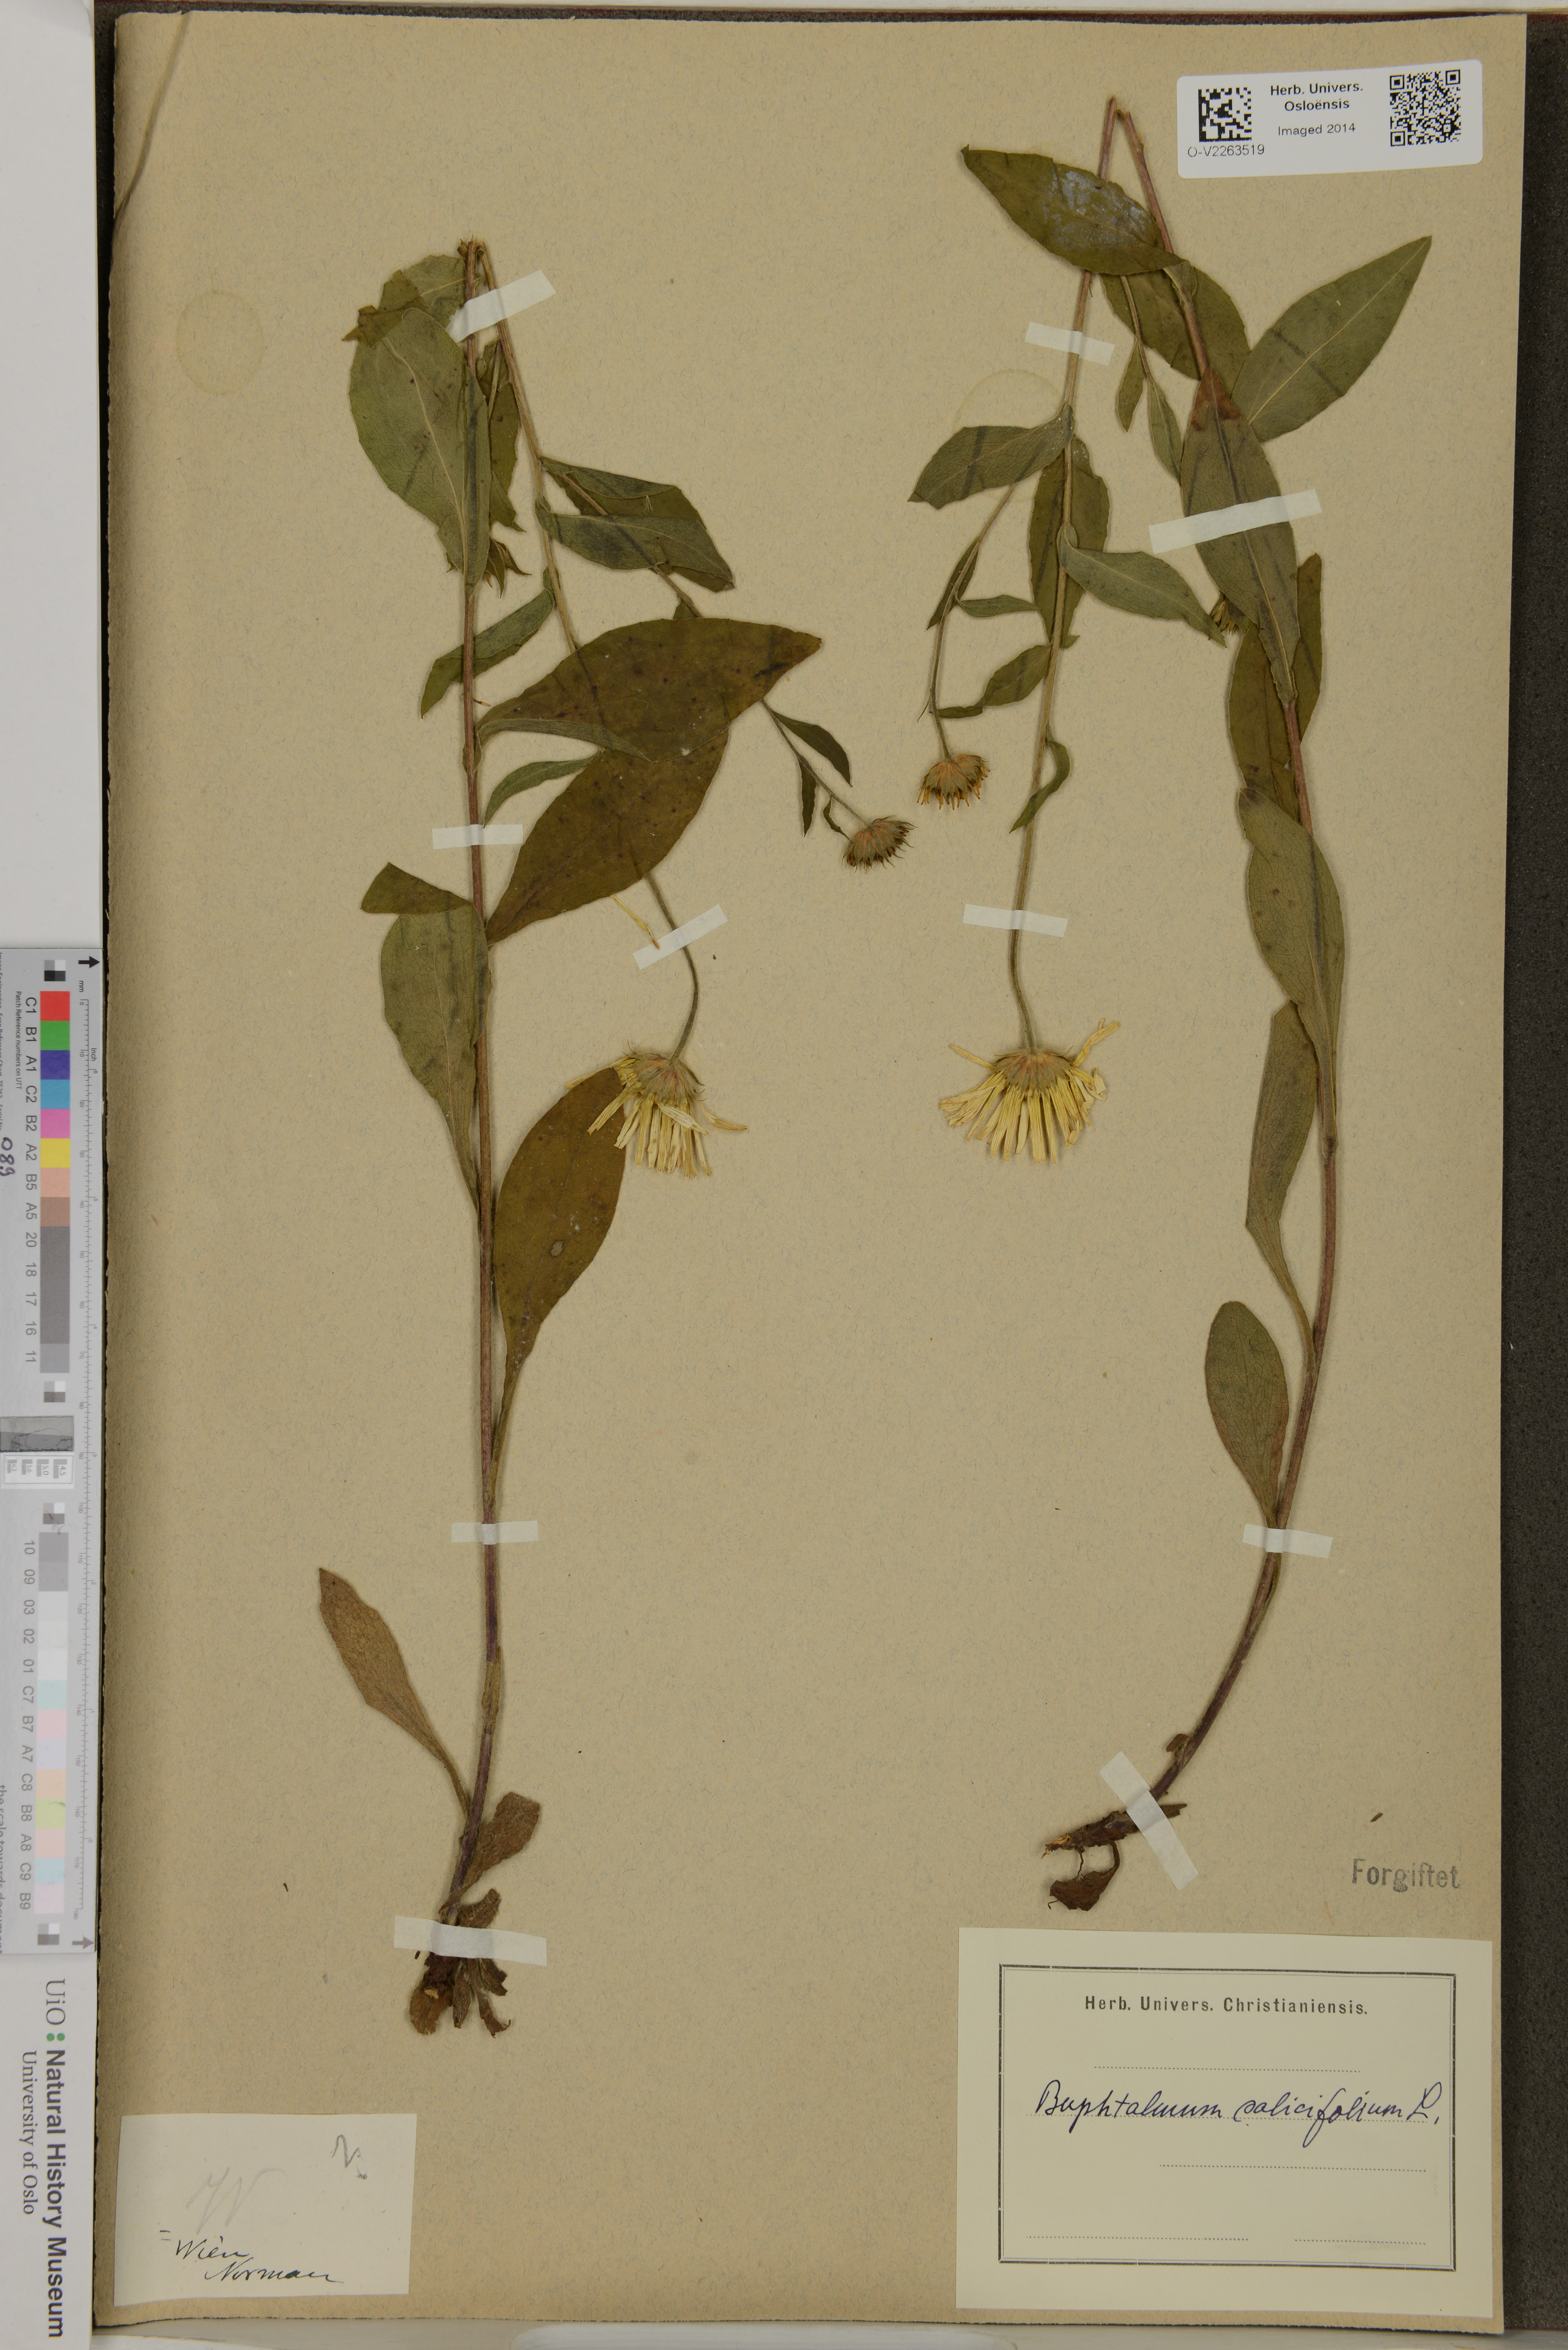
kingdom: Plantae
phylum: Tracheophyta
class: Magnoliopsida
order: Asterales
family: Asteraceae
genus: Buphthalmum
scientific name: Buphthalmum salicifolium
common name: Willow-leaved yellow-oxeye
